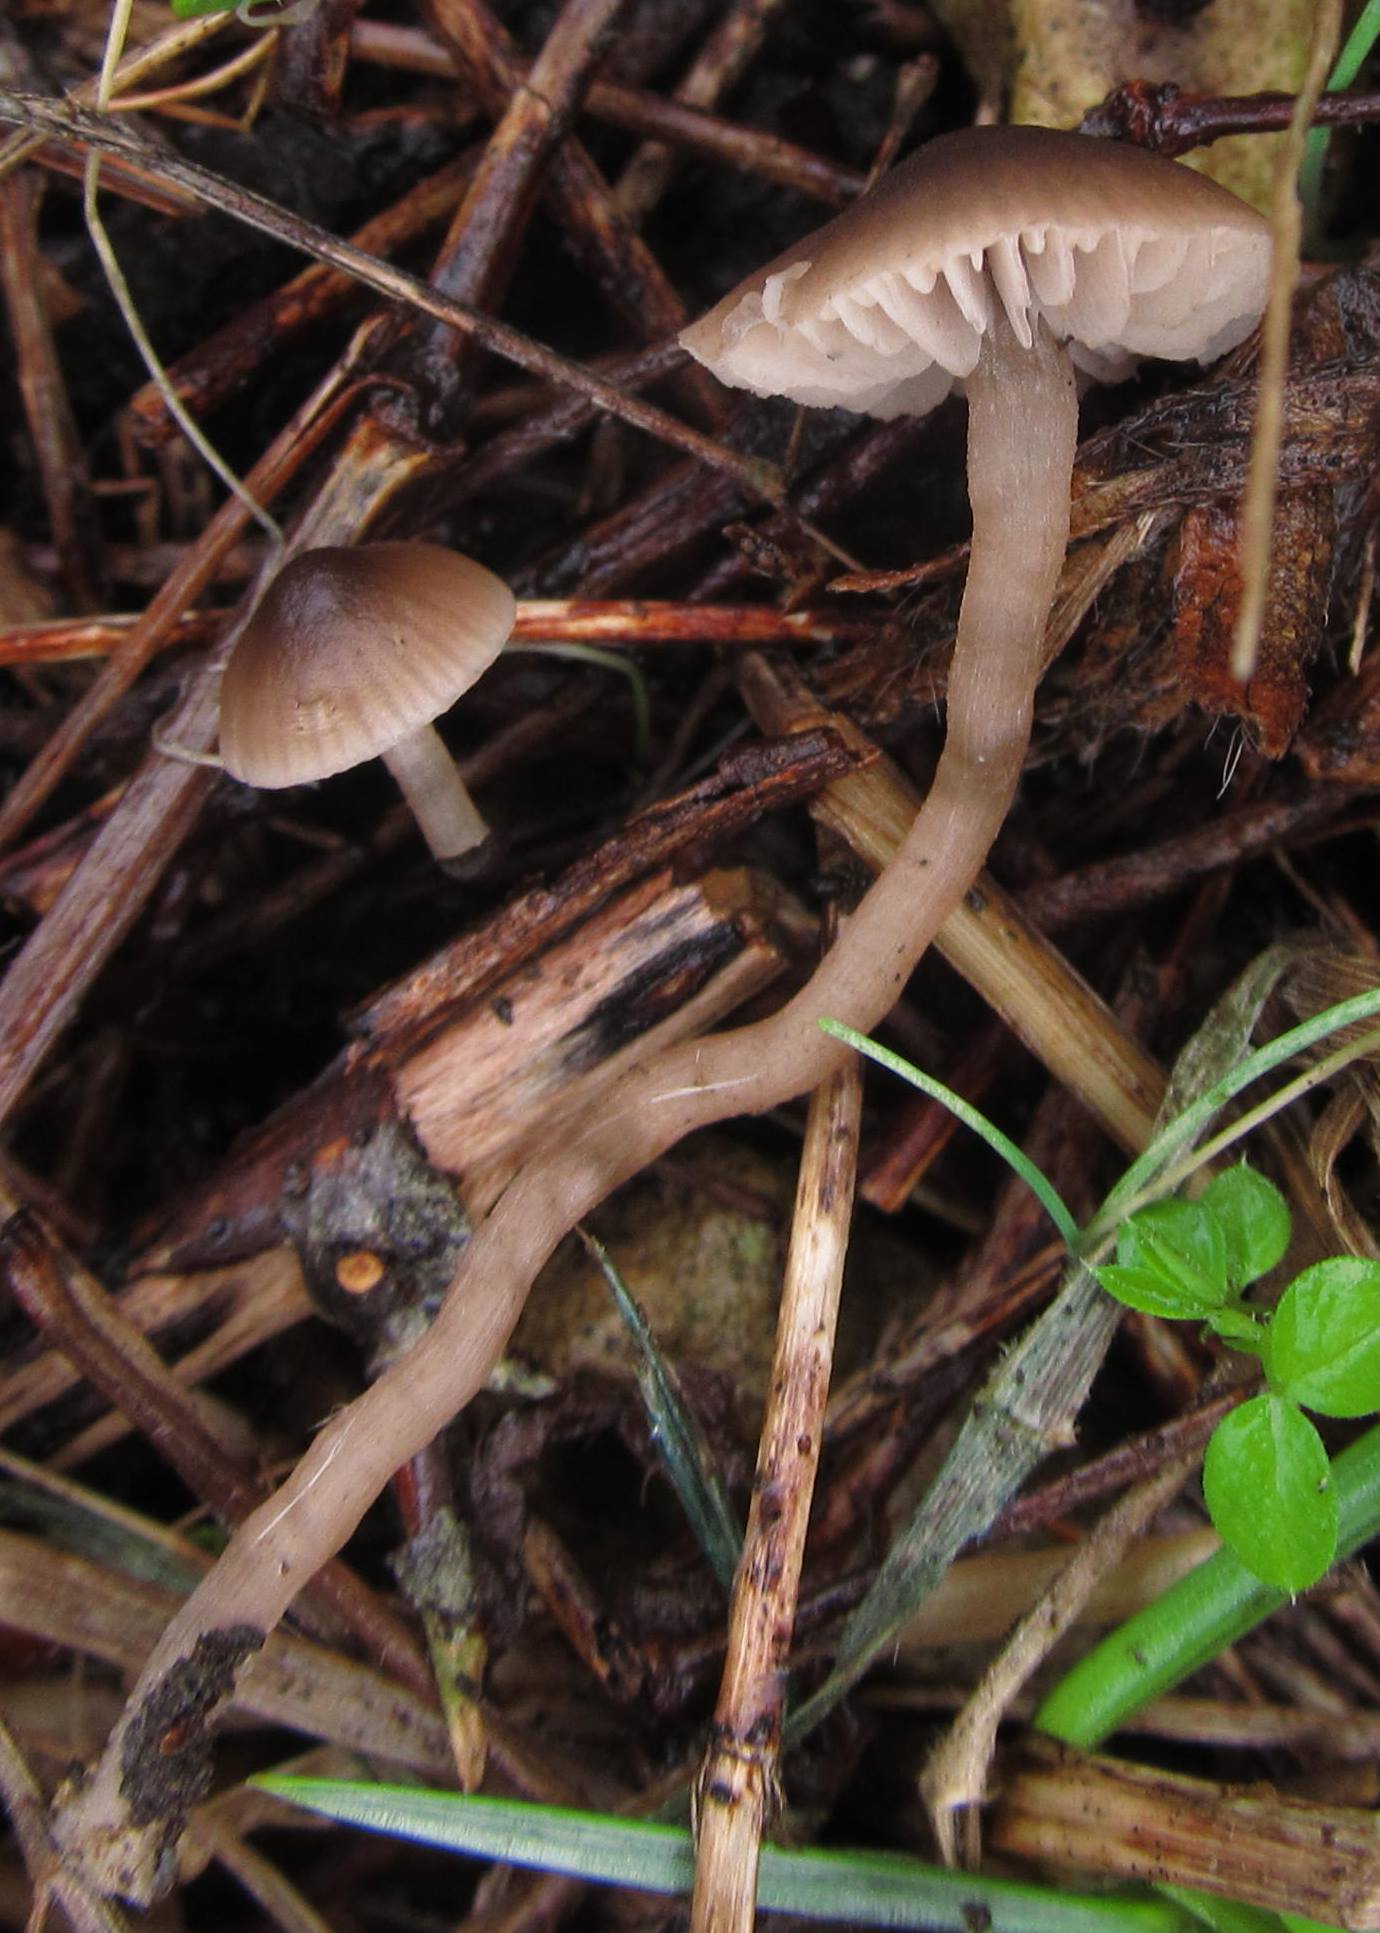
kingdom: Fungi
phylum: Basidiomycota
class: Agaricomycetes
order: Agaricales
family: Tricholomataceae
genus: Dermoloma
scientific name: Dermoloma pseudocuneifolium
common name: mark-nonnehat
